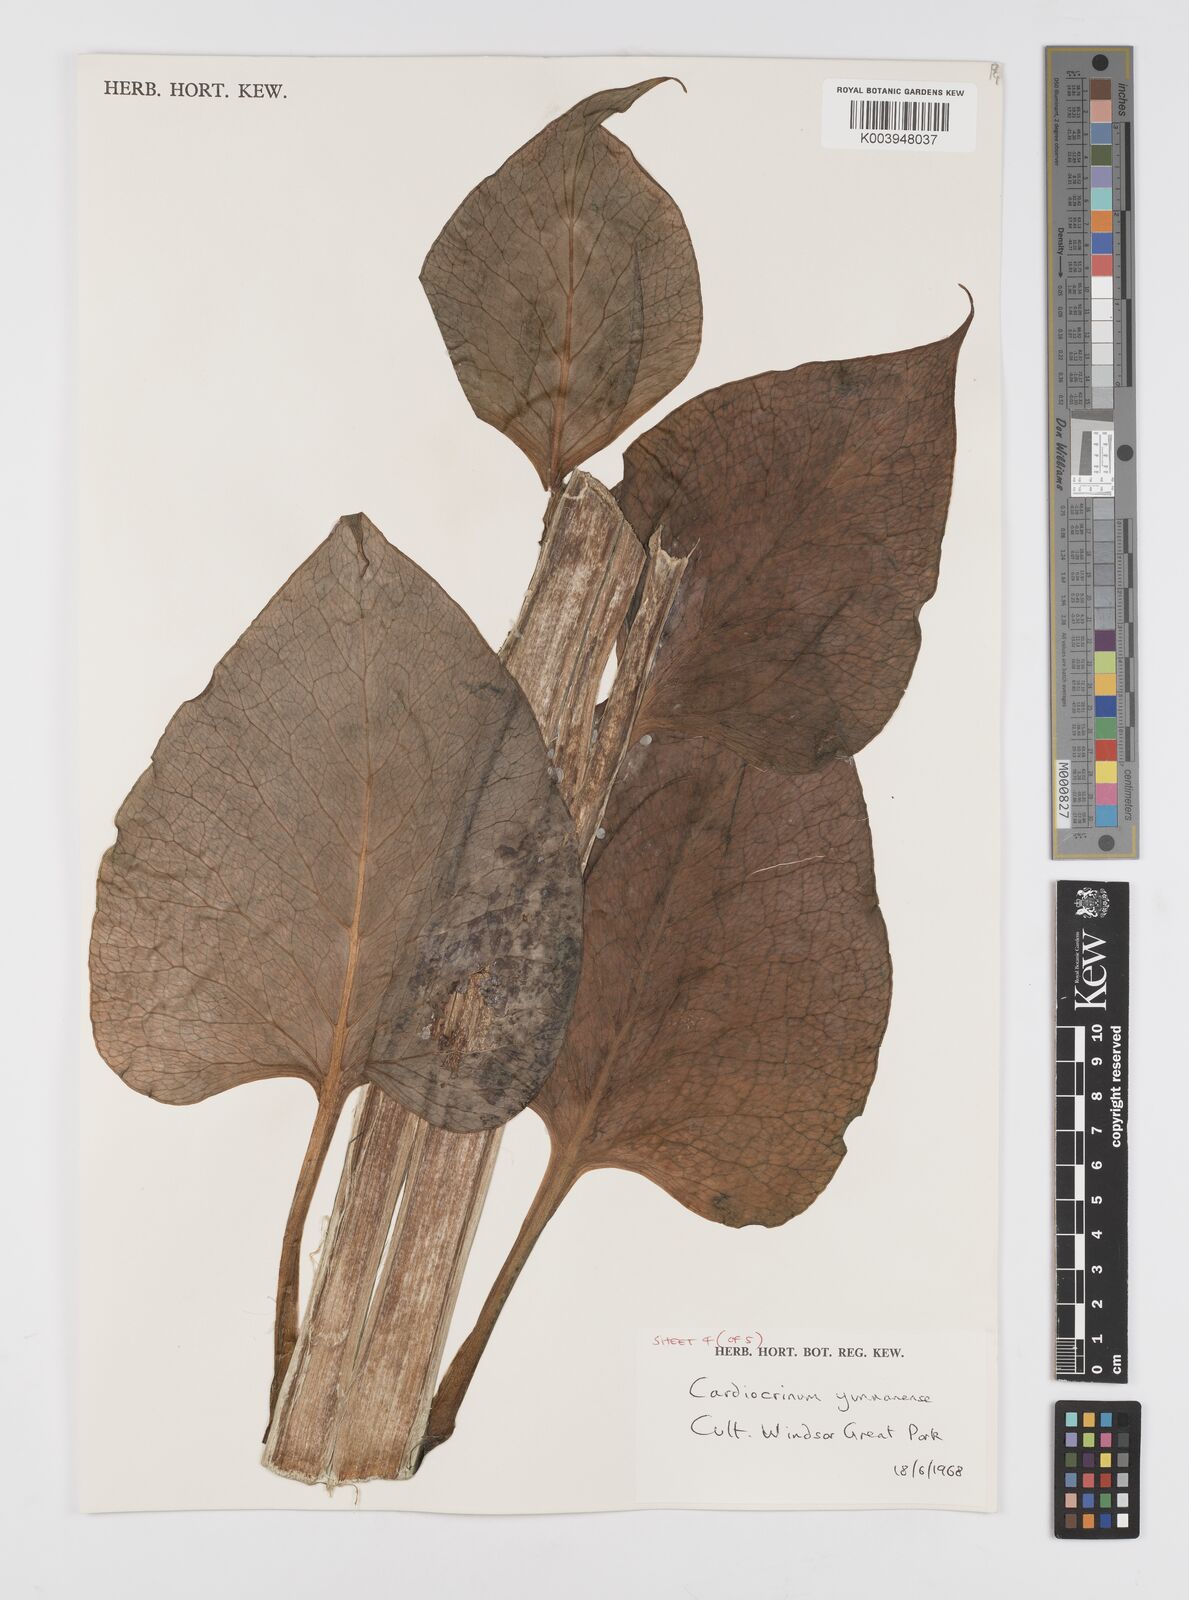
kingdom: Plantae
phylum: Tracheophyta
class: Liliopsida
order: Liliales
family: Liliaceae
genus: Cardiocrinum
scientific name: Cardiocrinum
